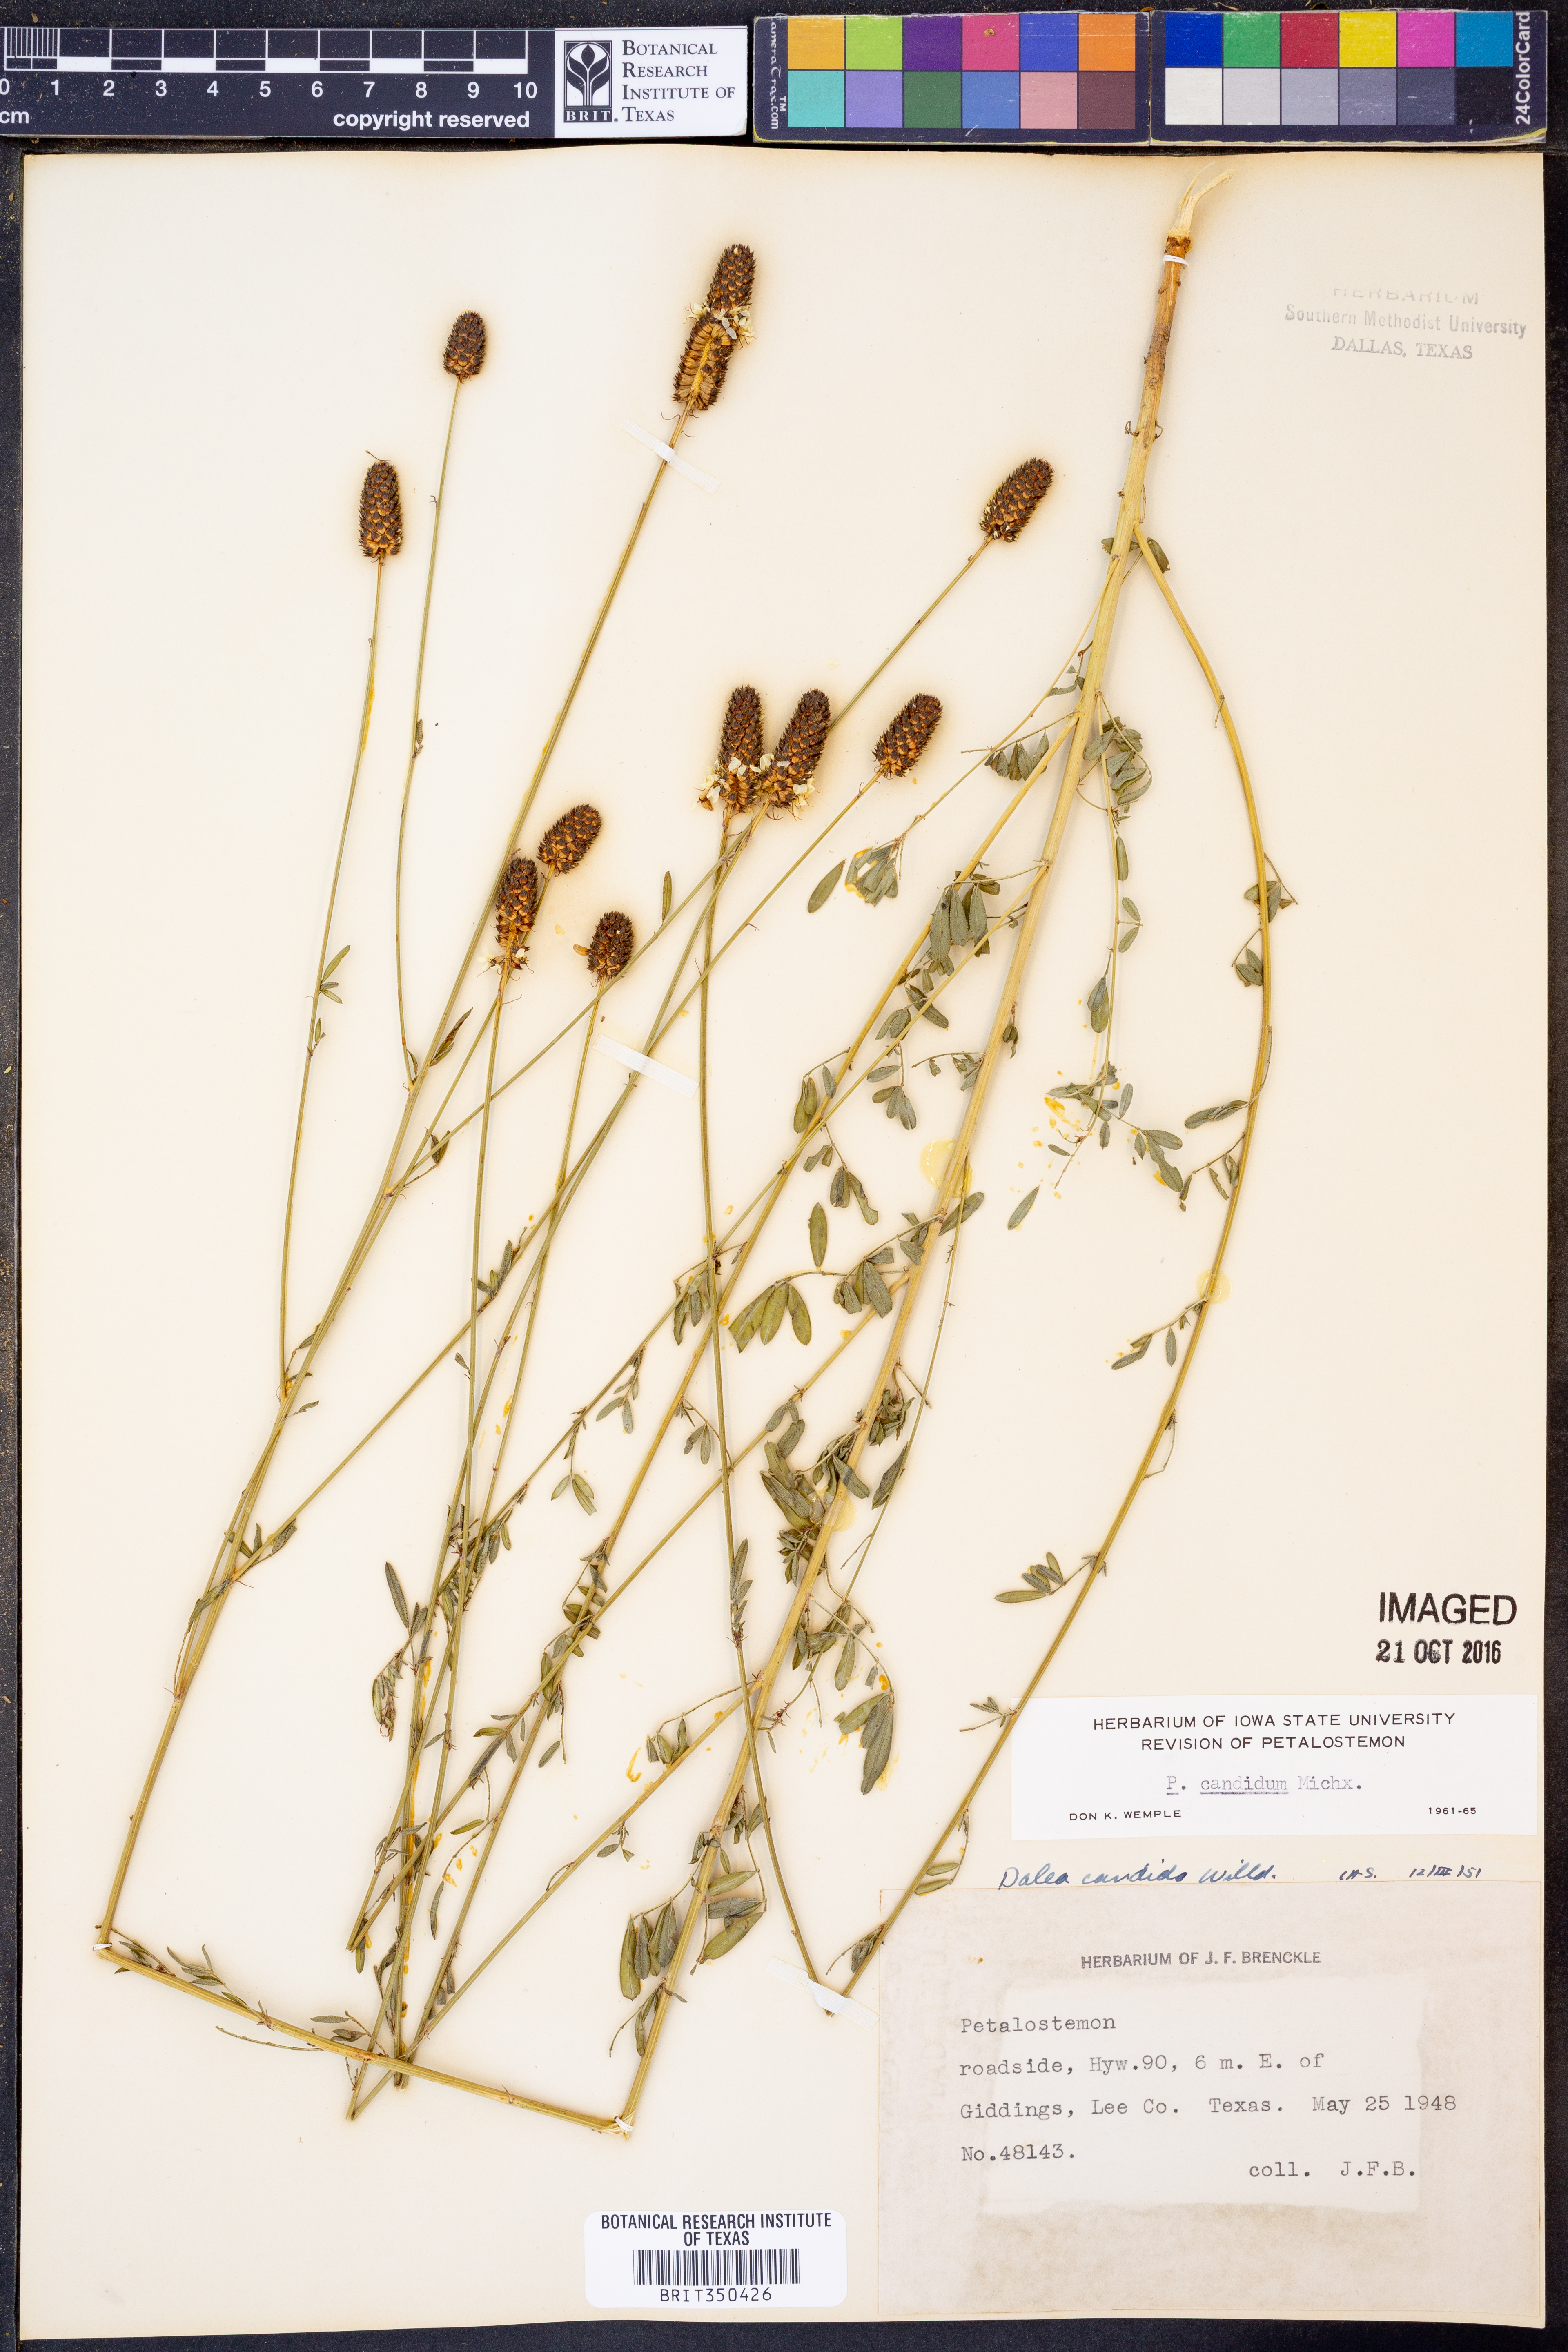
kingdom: Plantae
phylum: Tracheophyta
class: Magnoliopsida
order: Fabales
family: Fabaceae
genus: Dalea
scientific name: Dalea candida
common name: White prairie-clover
